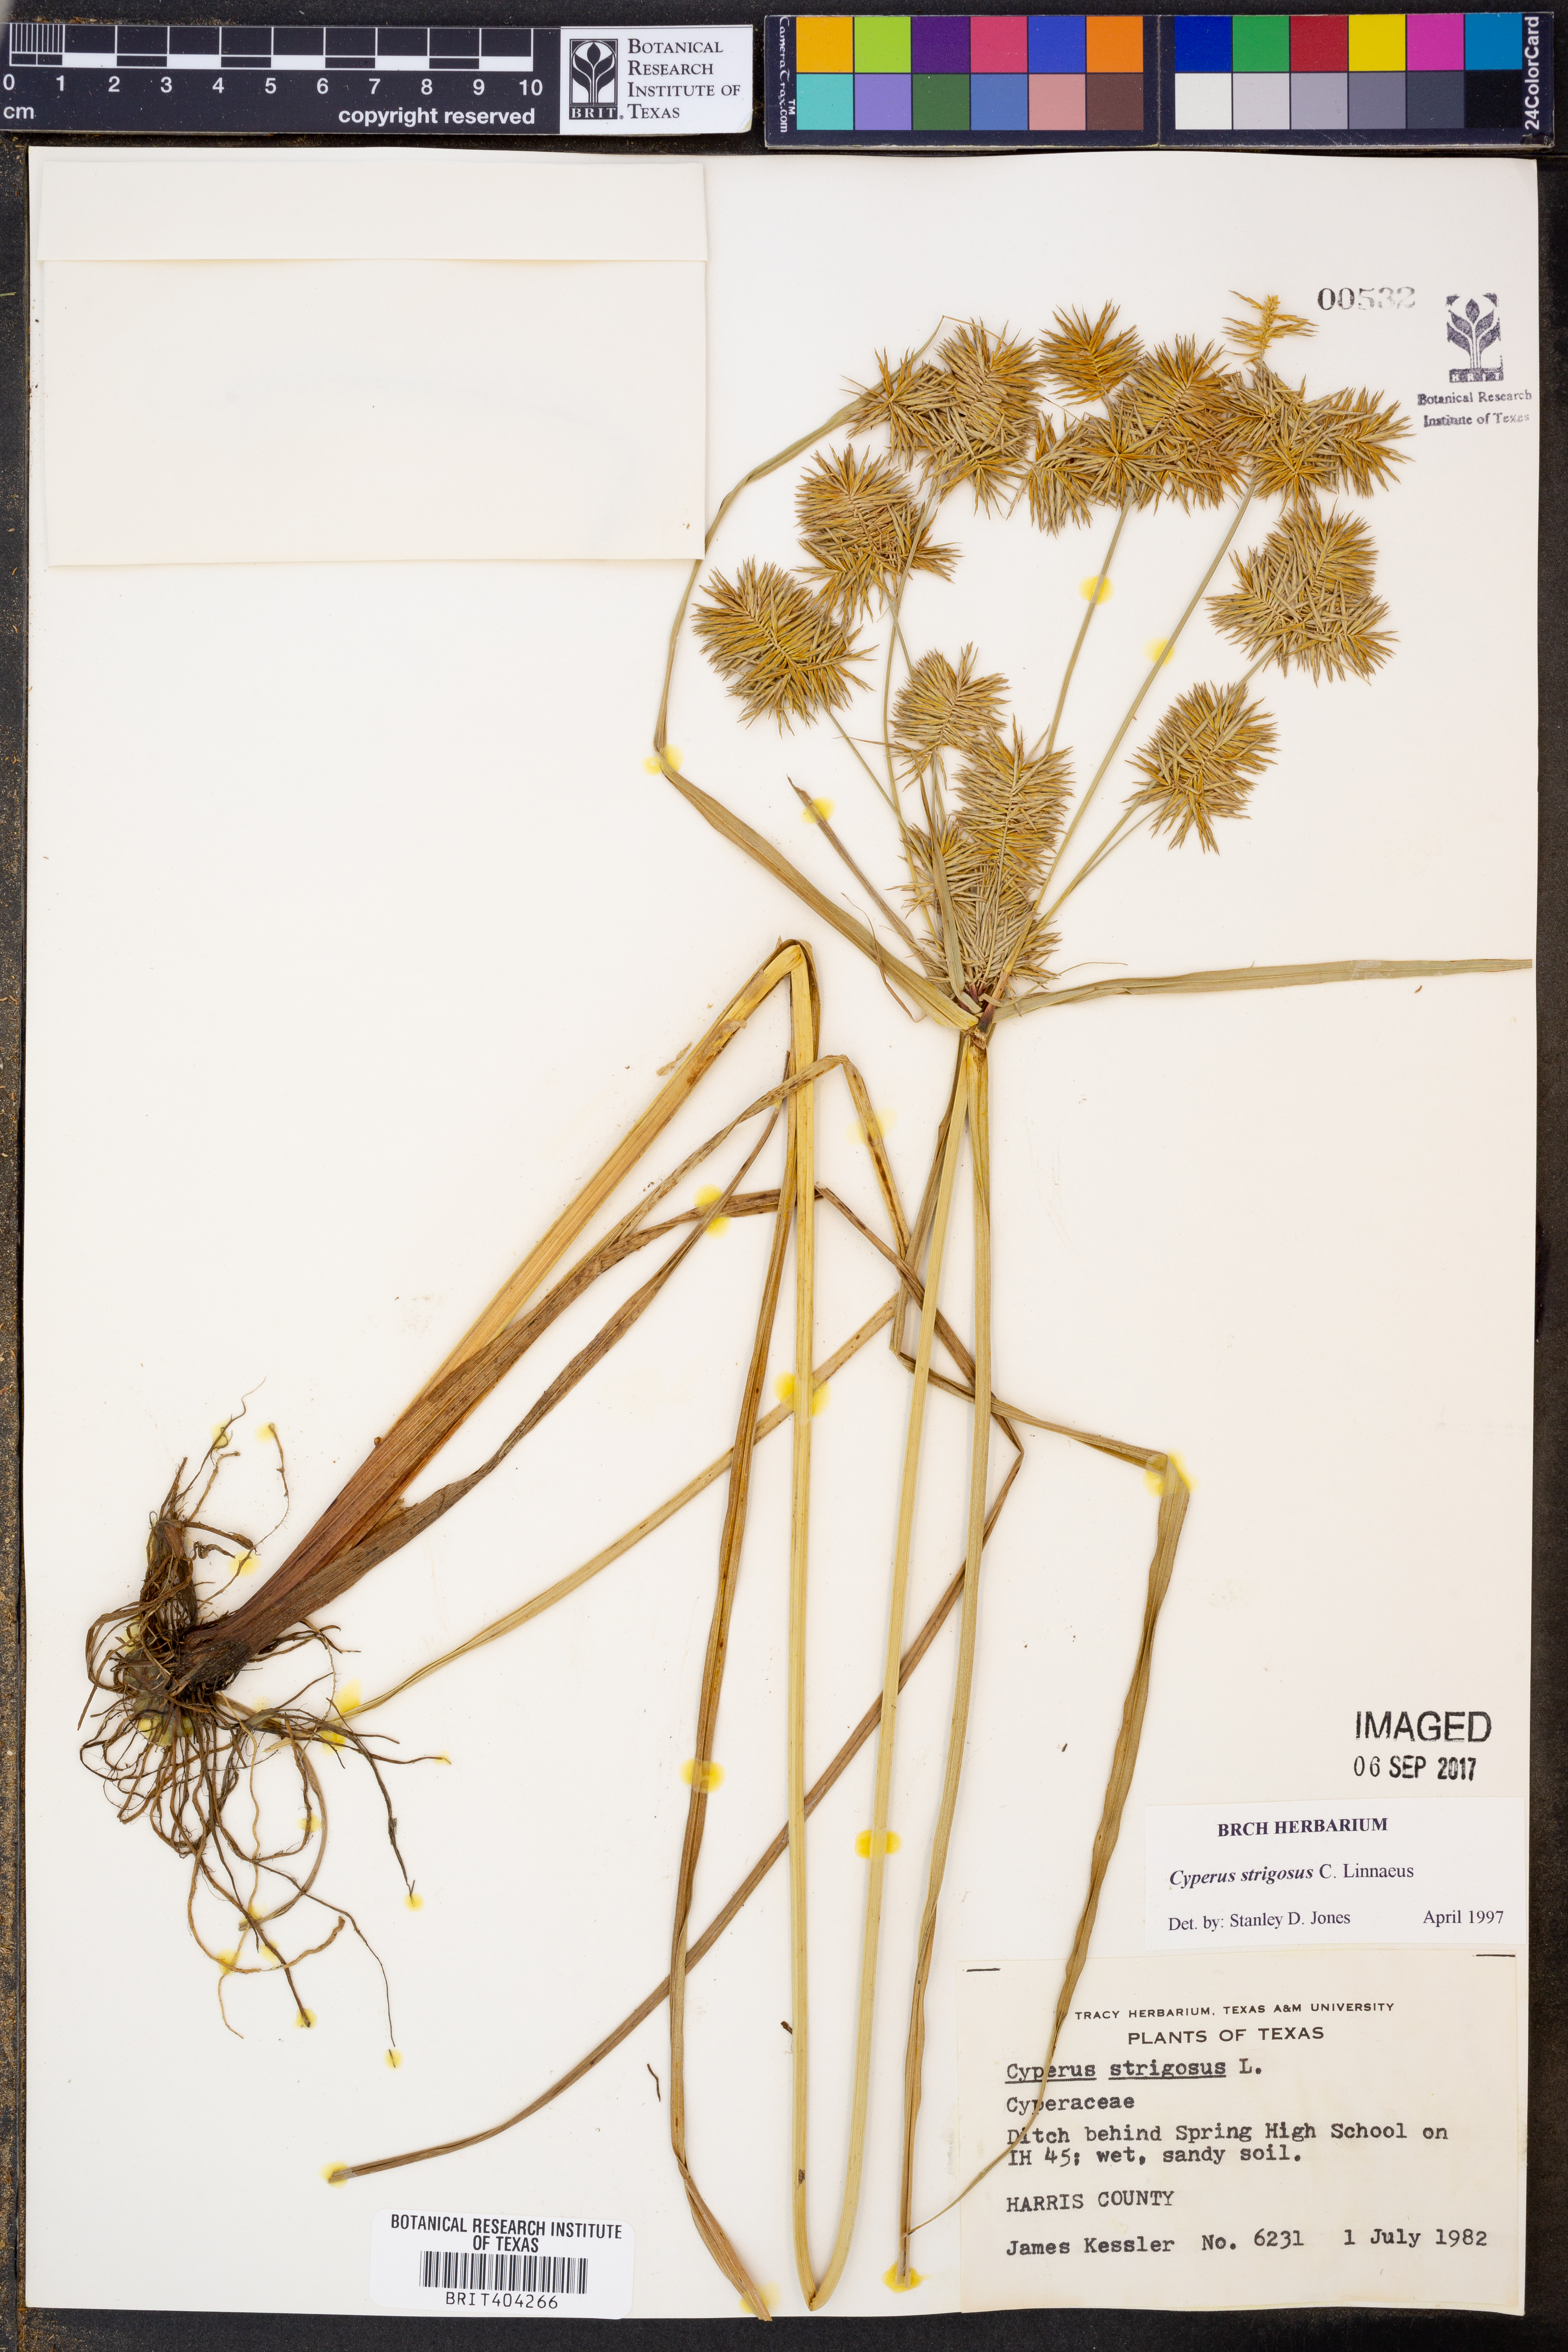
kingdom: Plantae
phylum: Tracheophyta
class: Liliopsida
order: Poales
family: Cyperaceae
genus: Cyperus
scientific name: Cyperus strigosus
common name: False nutsedge
